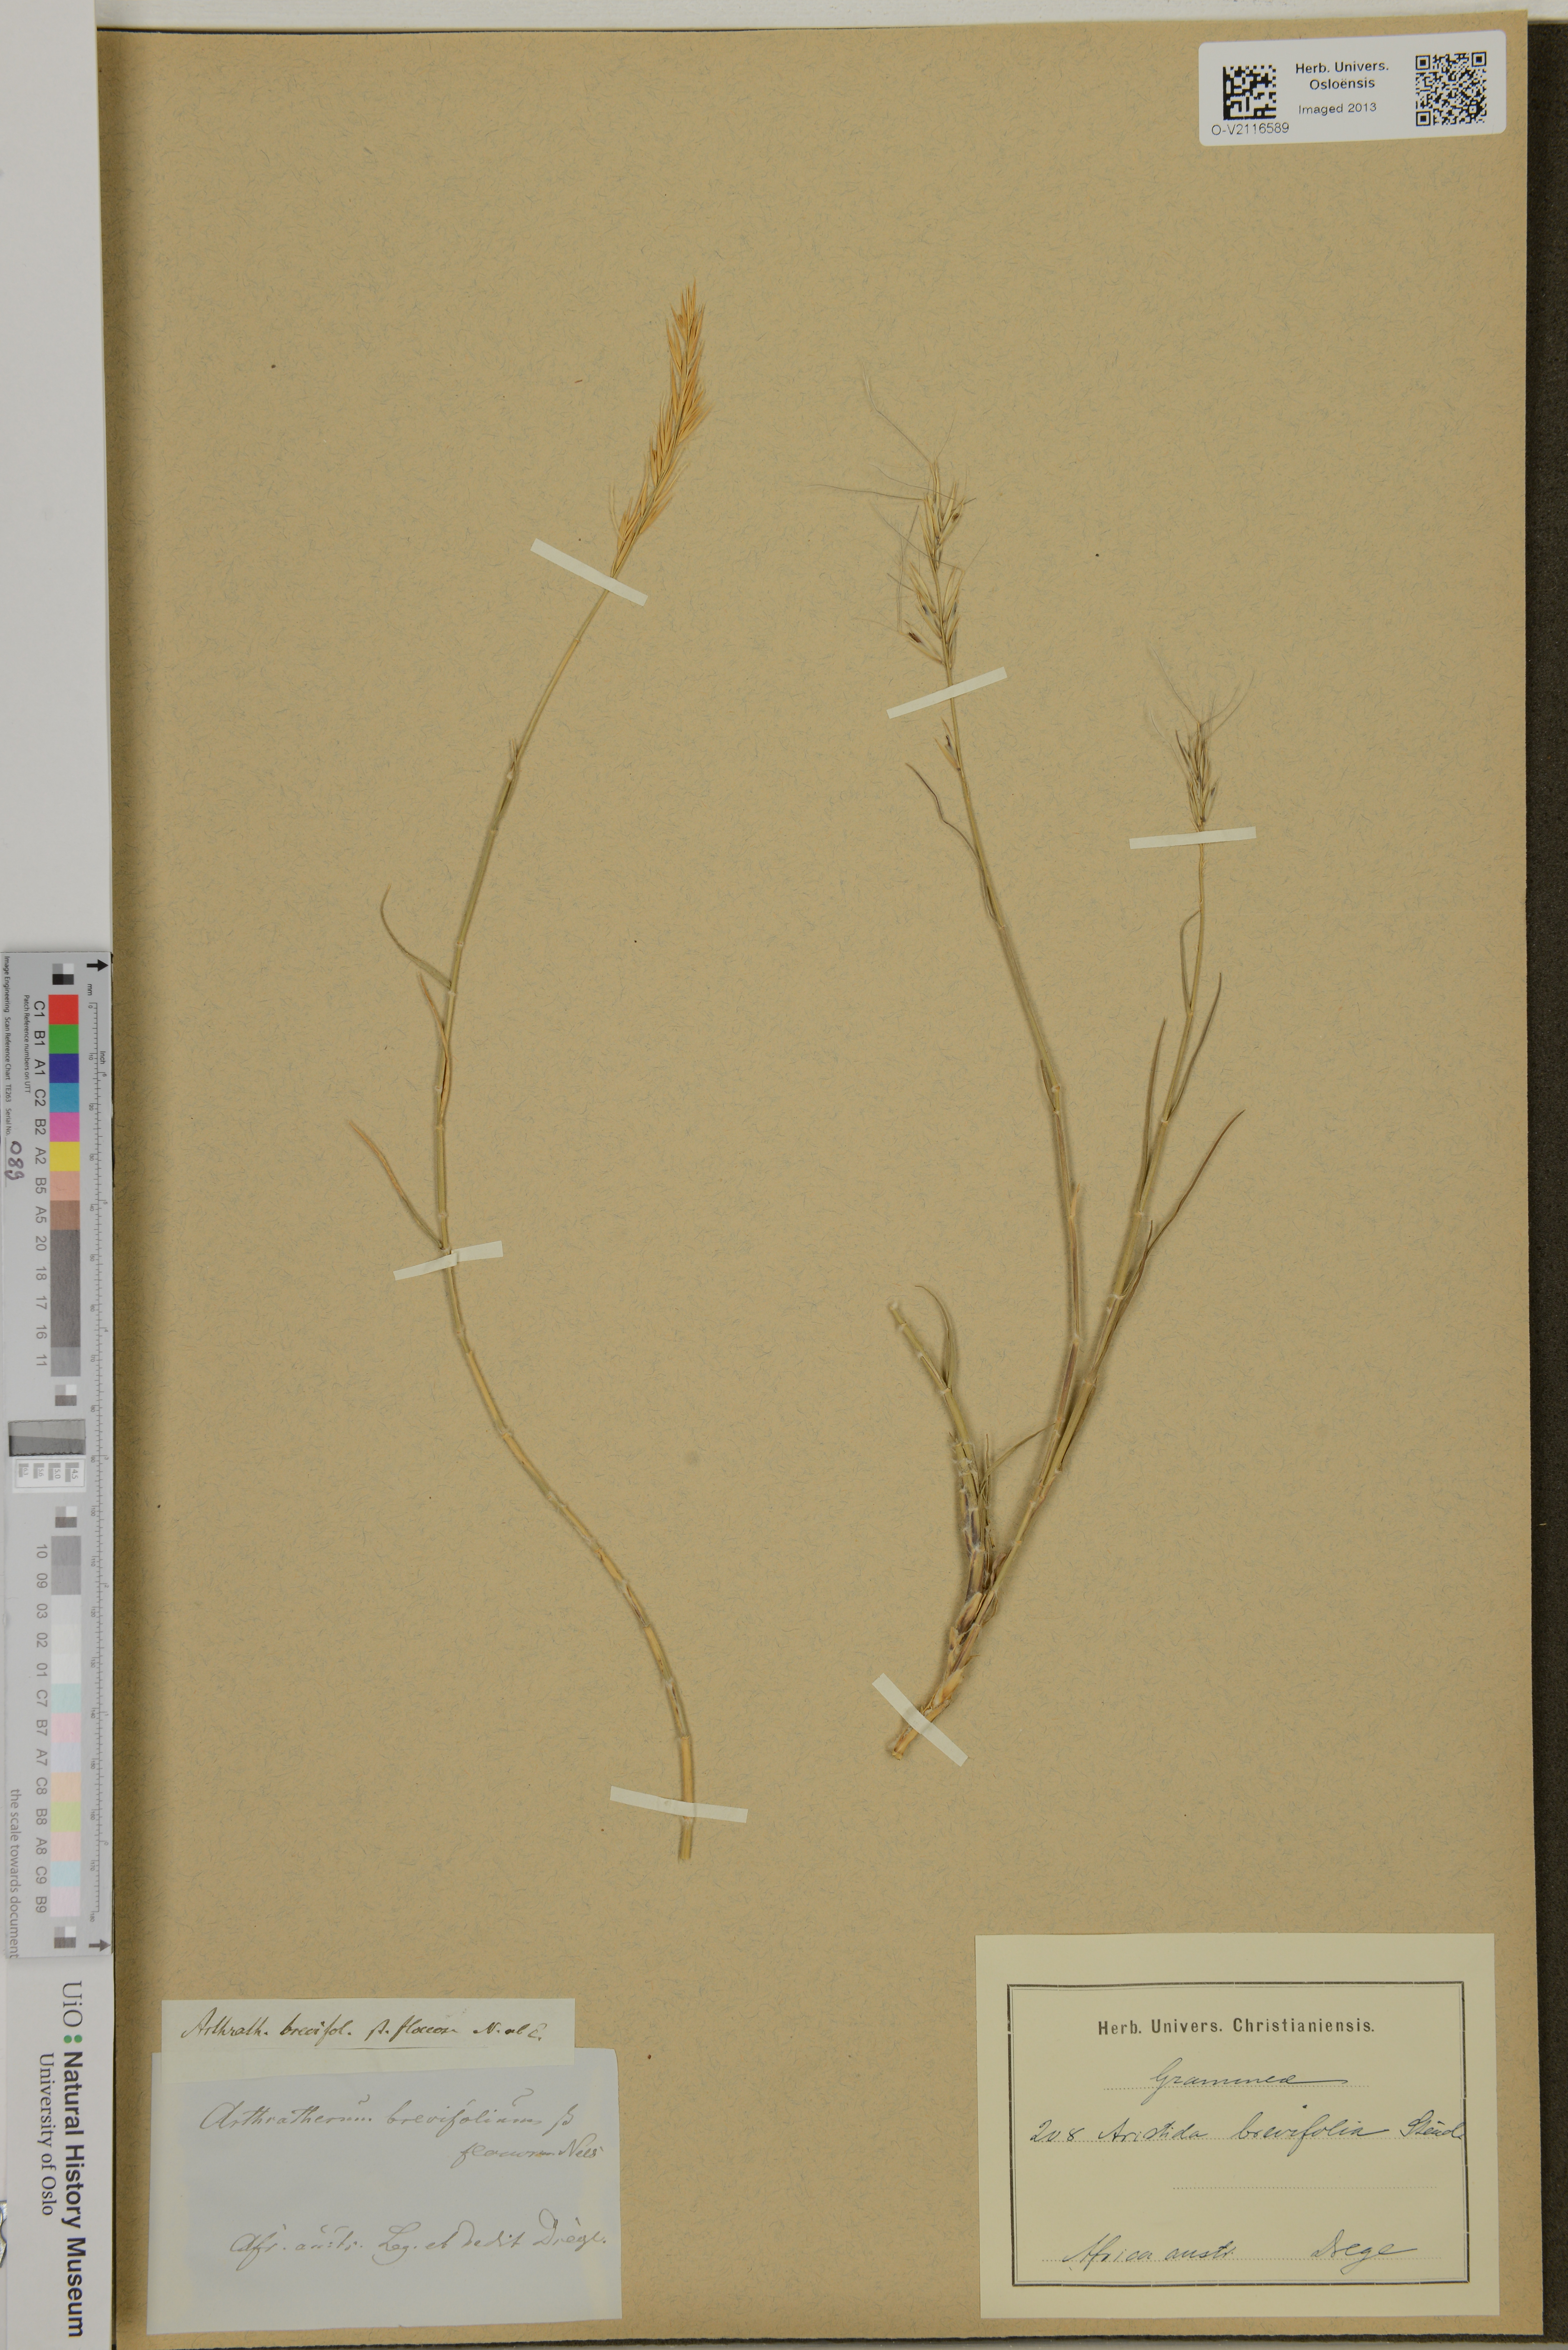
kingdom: Plantae
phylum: Tracheophyta
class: Liliopsida
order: Poales
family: Poaceae
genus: Stipagrostis
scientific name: Stipagrostis brevifolia
